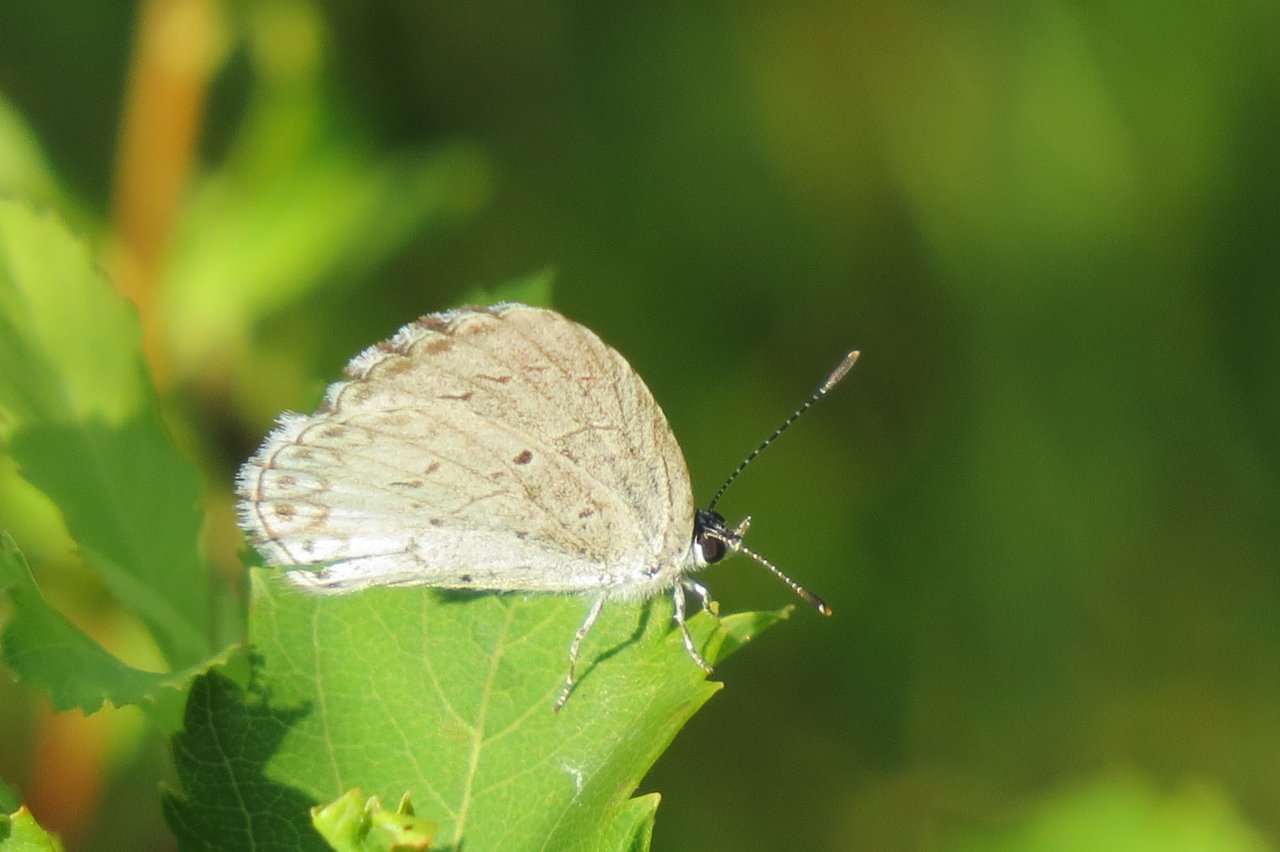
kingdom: Animalia
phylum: Arthropoda
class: Insecta
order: Lepidoptera
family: Lycaenidae
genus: Celastrina
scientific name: Celastrina lucia
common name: Northern Spring Azure
